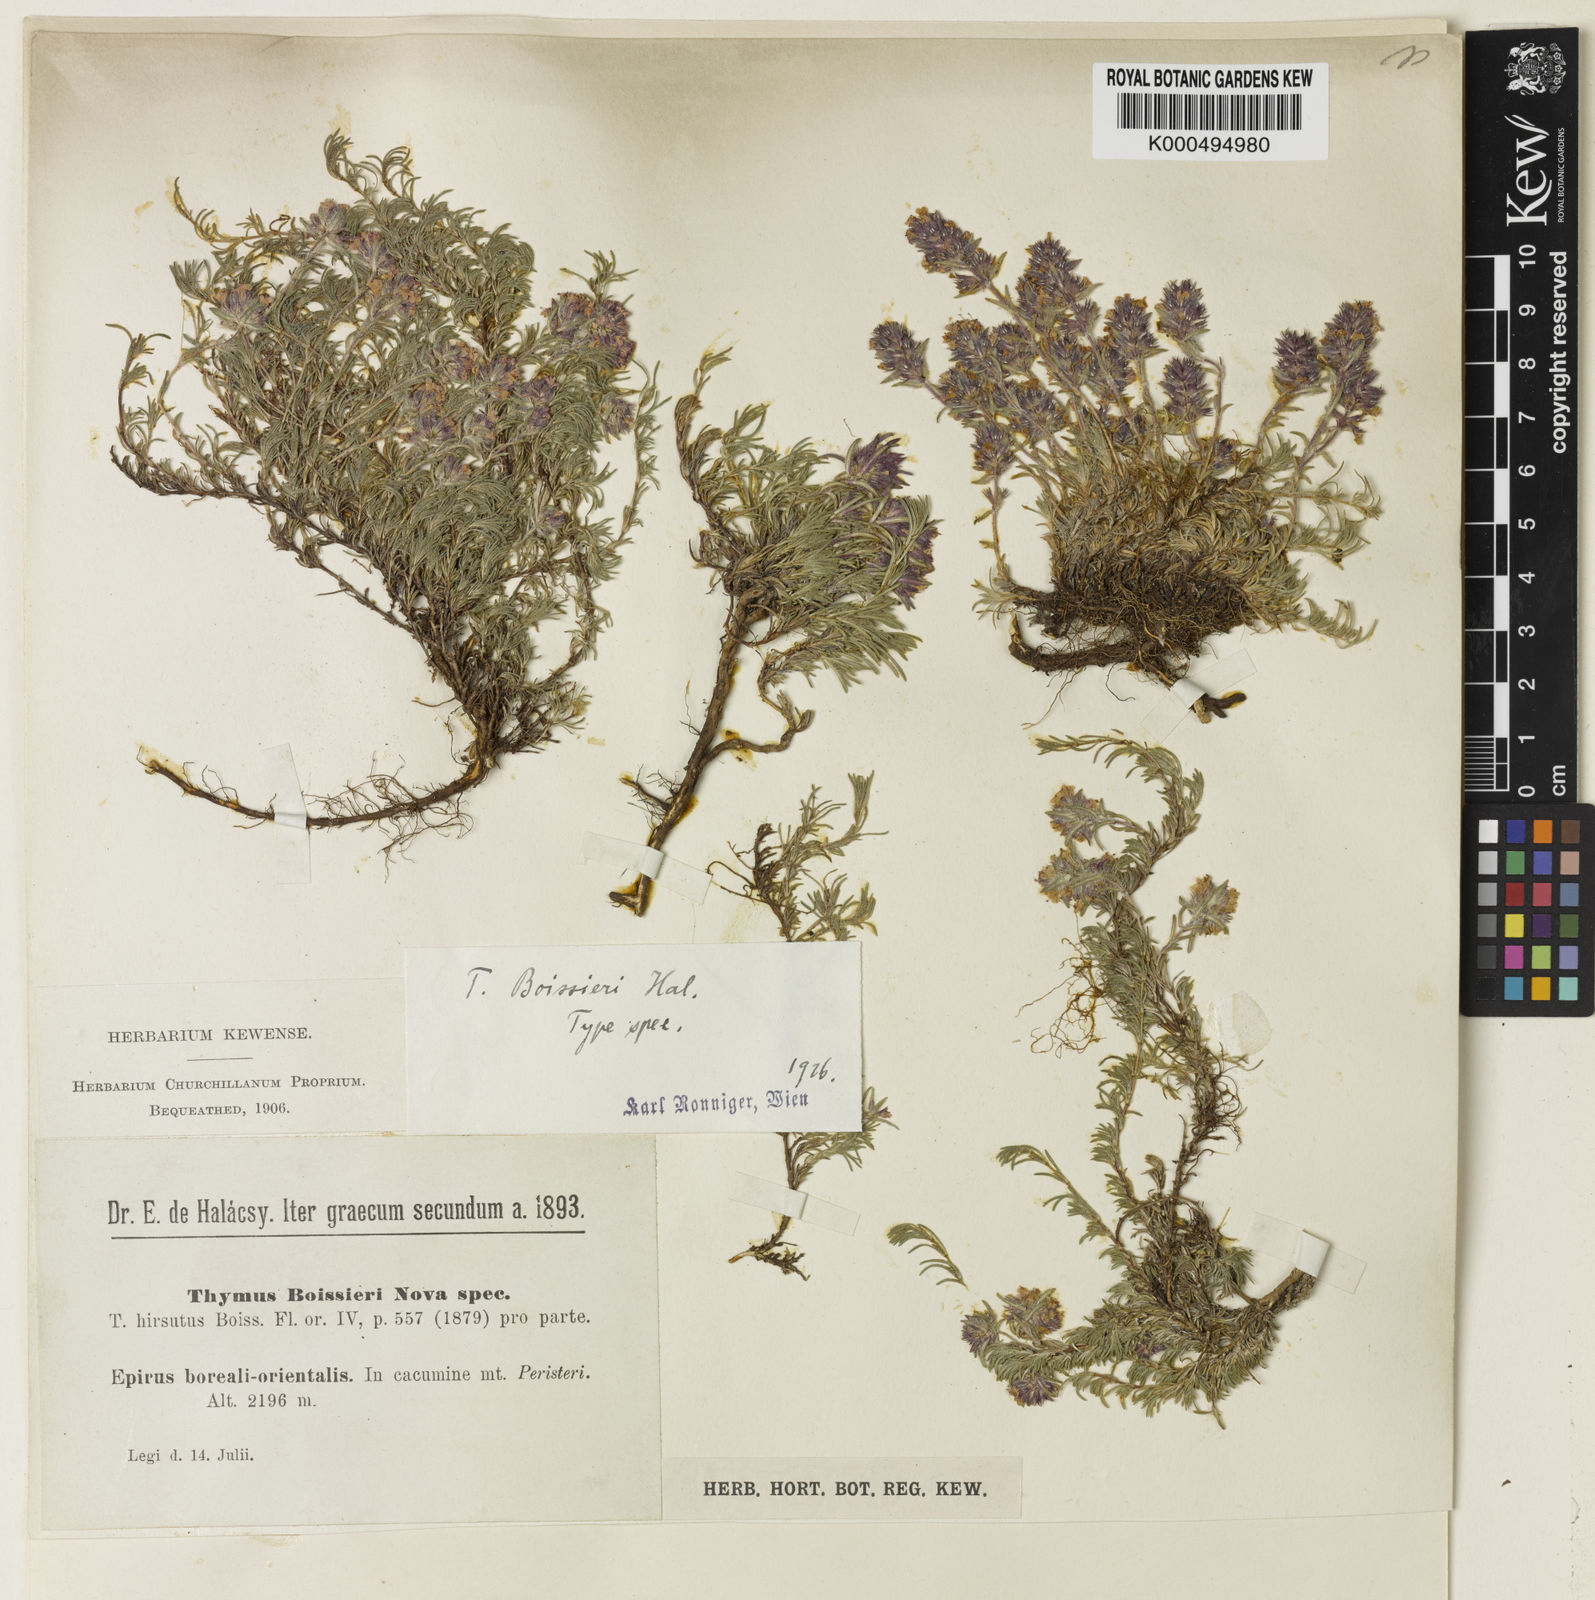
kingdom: Plantae
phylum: Tracheophyta
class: Magnoliopsida
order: Lamiales
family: Lamiaceae
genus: Thymus
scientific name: Thymus cherlerioides
